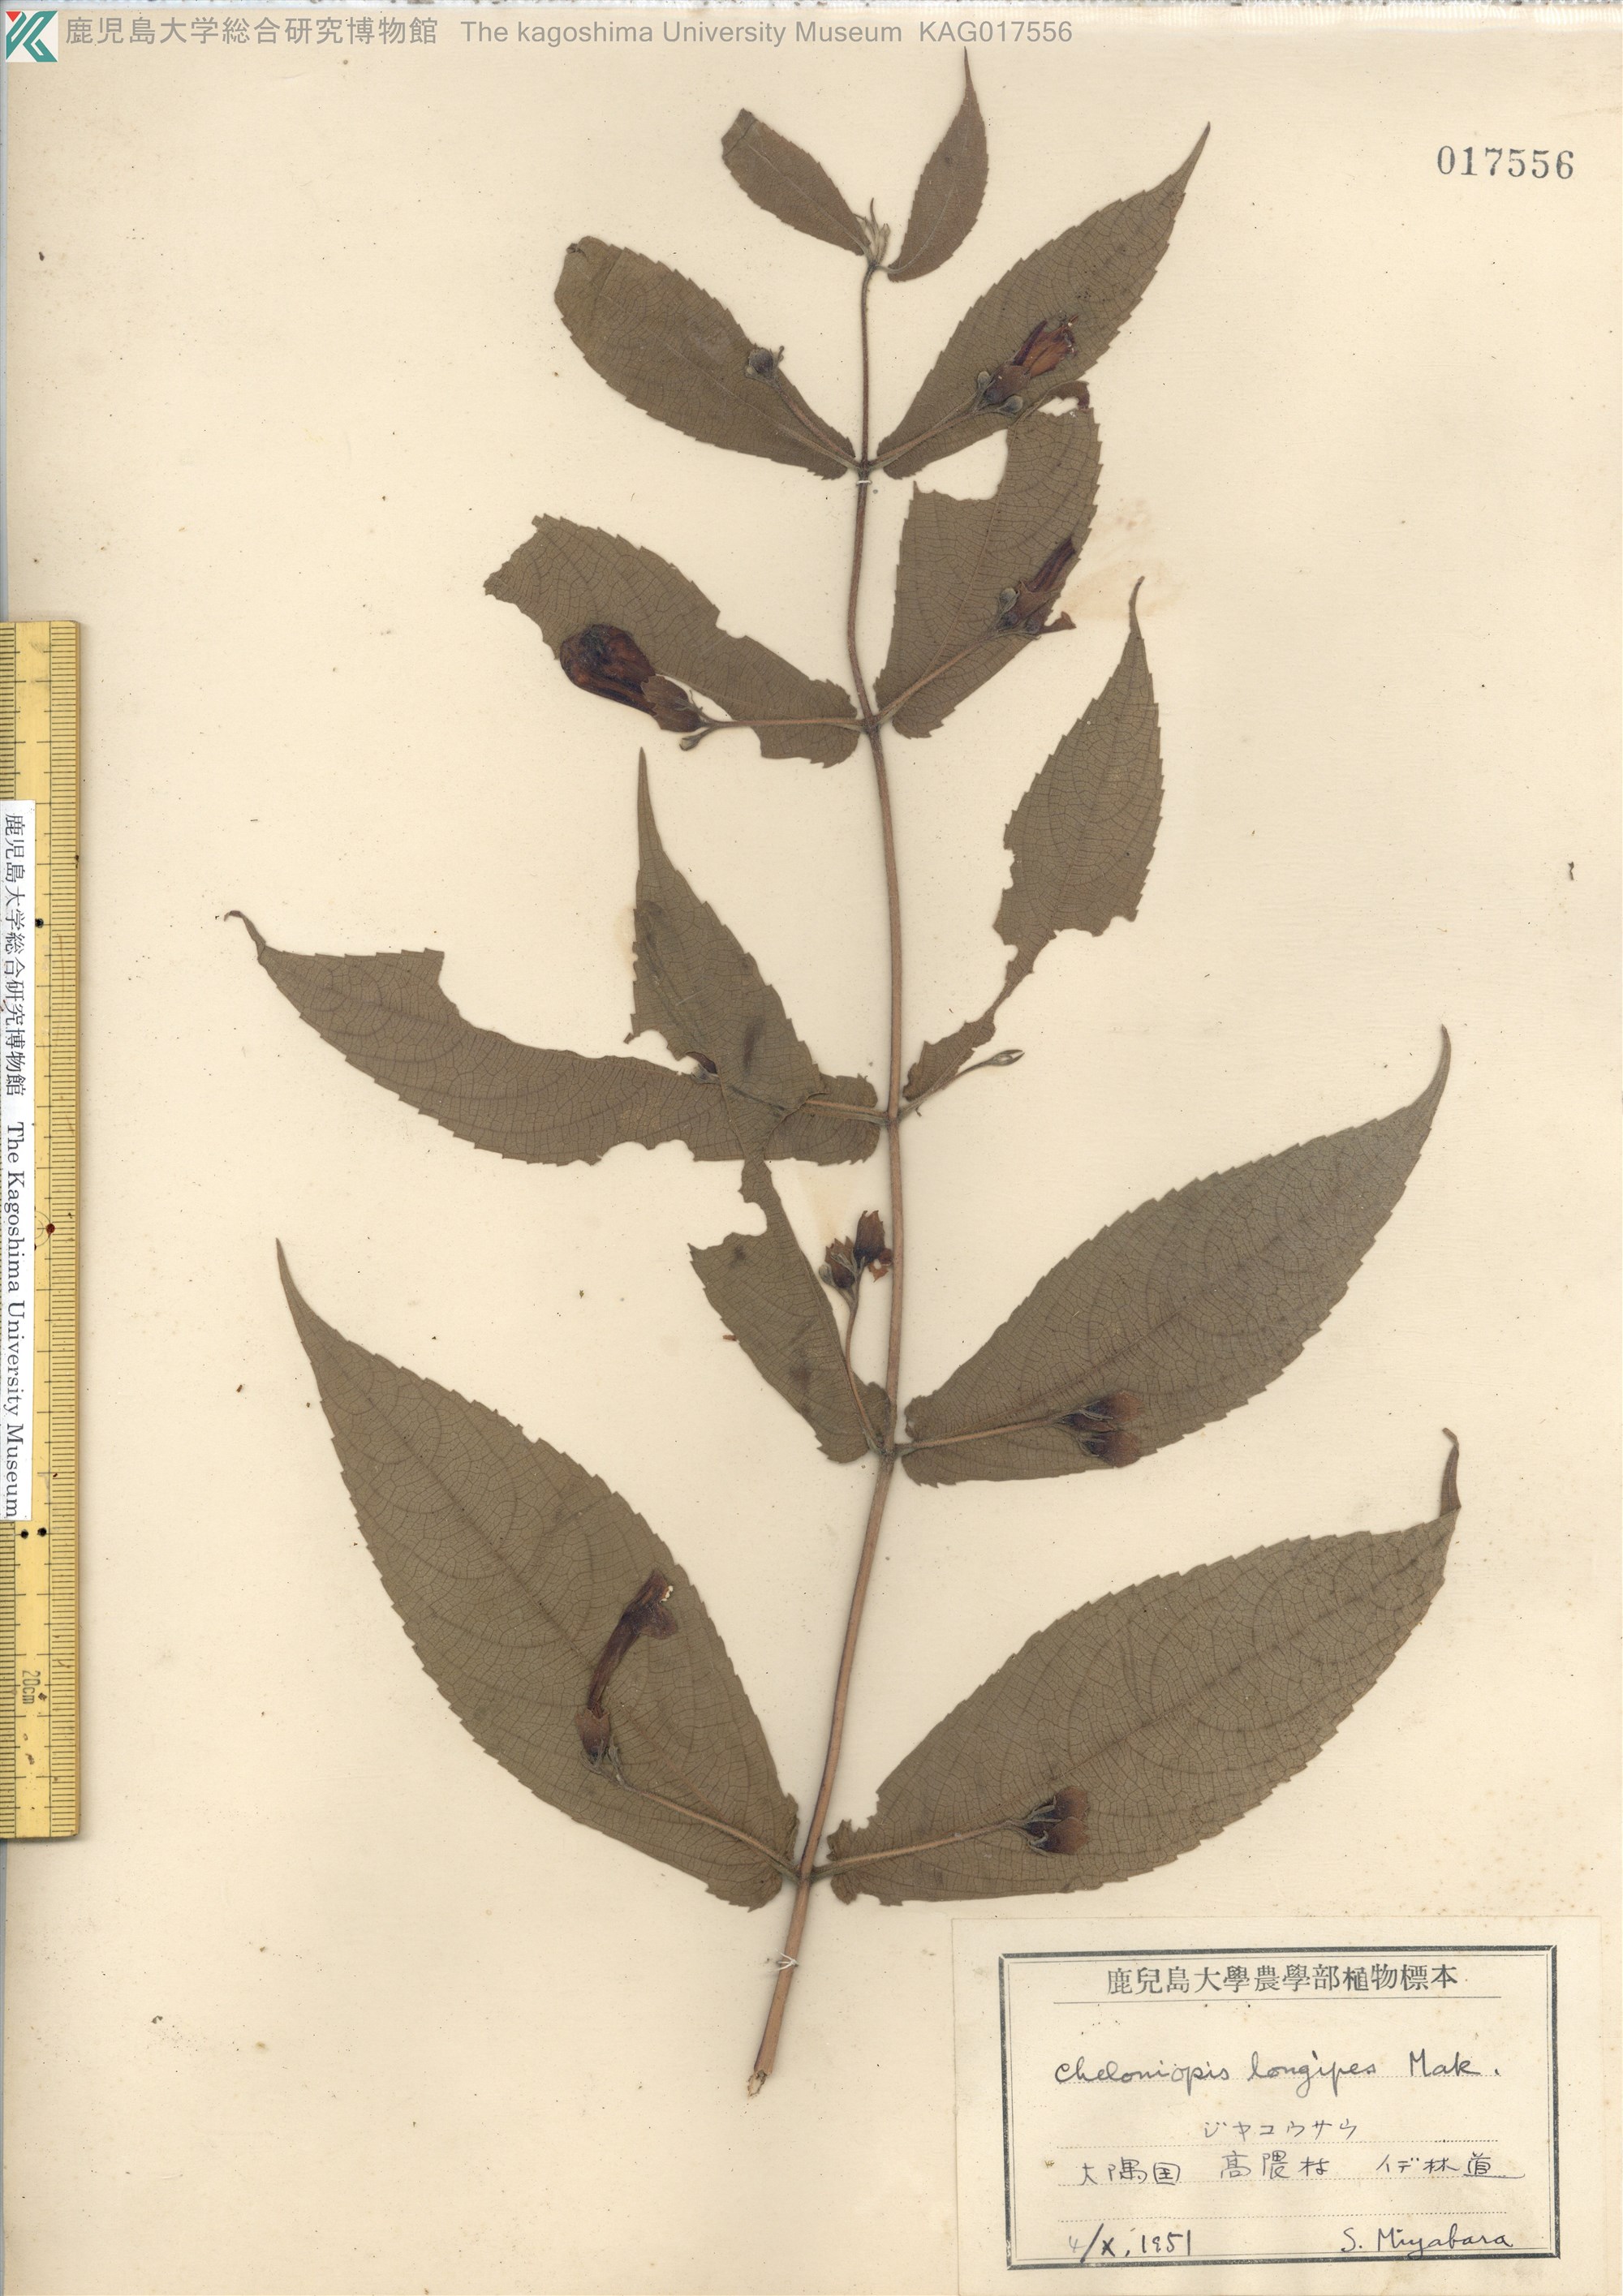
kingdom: Plantae
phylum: Tracheophyta
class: Magnoliopsida
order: Lamiales
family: Lamiaceae
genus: Chelonopsis
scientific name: Chelonopsis longipes
